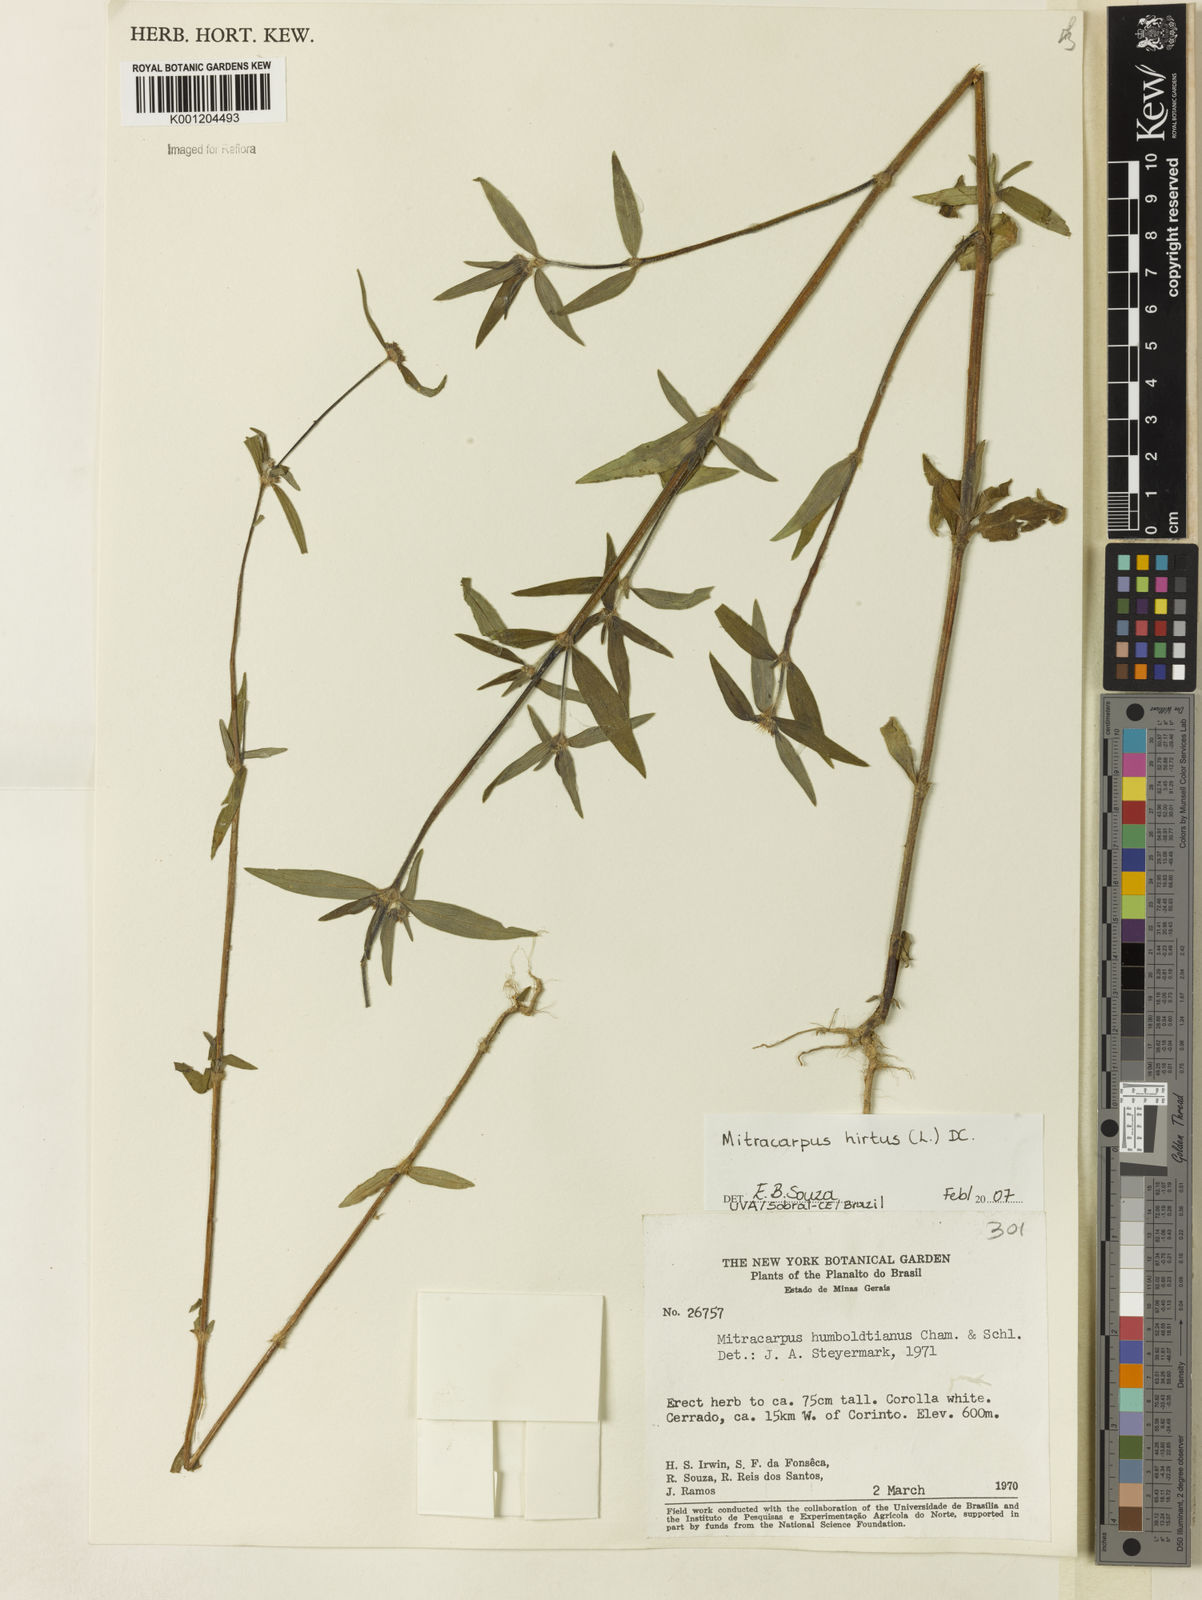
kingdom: Plantae
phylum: Tracheophyta
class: Magnoliopsida
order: Gentianales
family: Rubiaceae
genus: Mitracarpus
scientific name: Mitracarpus hirtus
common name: Tropical girdlepod
